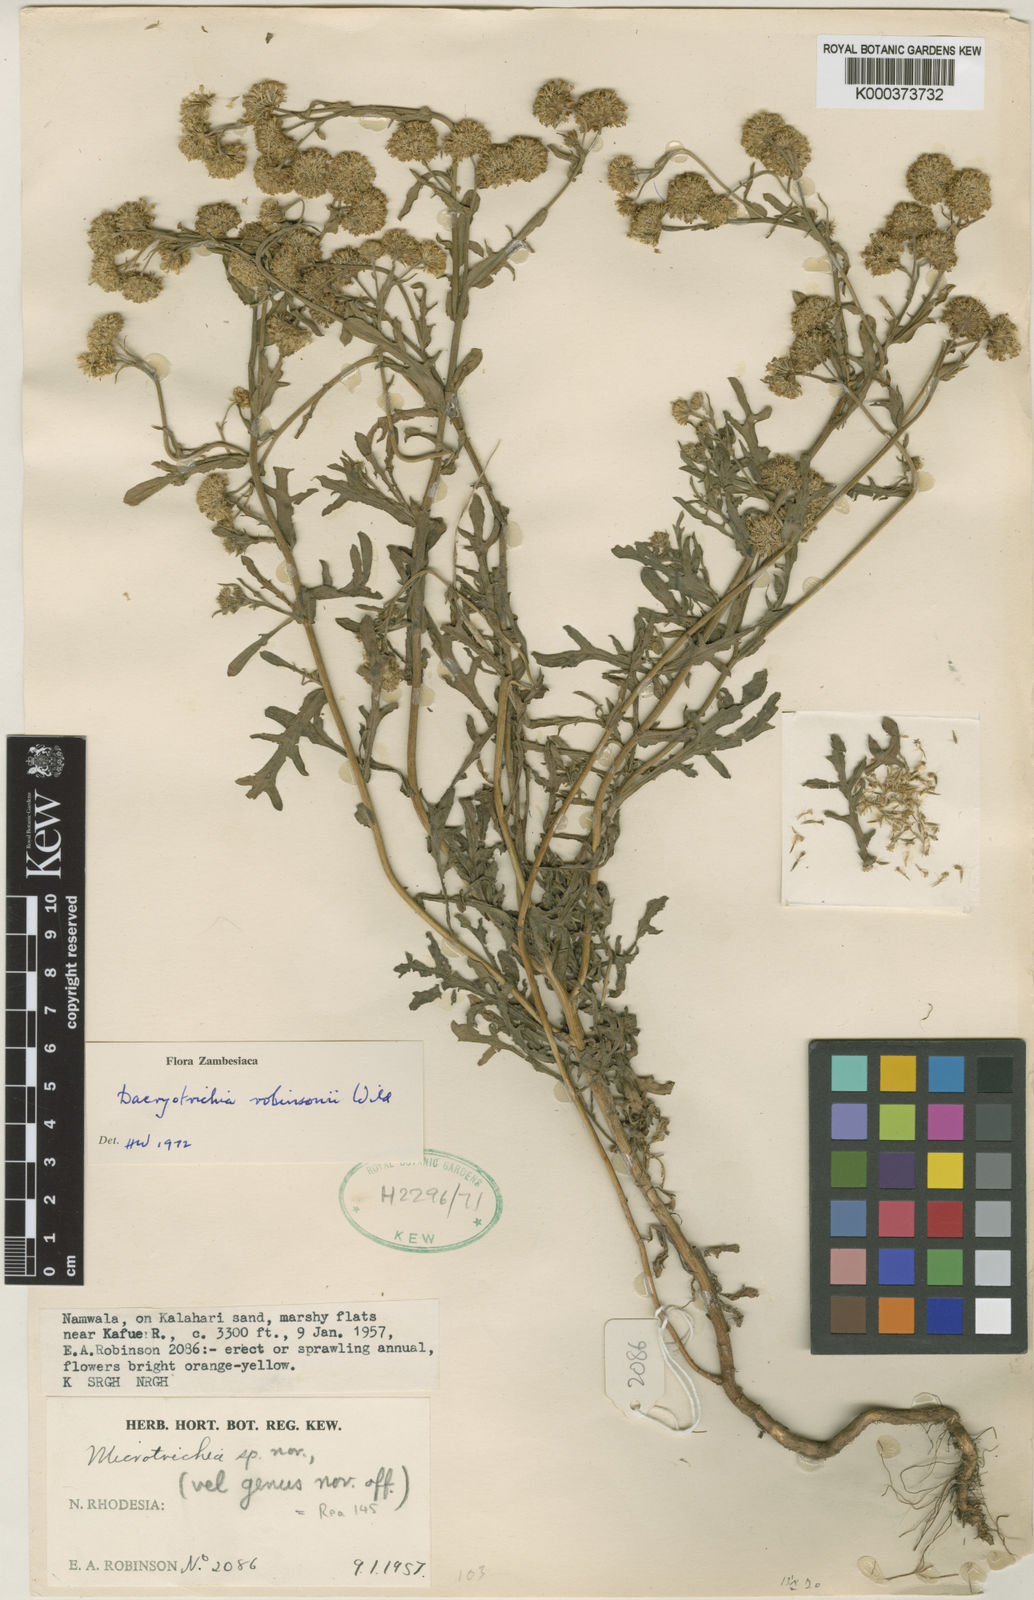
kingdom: Plantae
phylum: Tracheophyta
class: Magnoliopsida
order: Asterales
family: Asteraceae
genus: Dacryotrichia
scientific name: Dacryotrichia robinsonii
